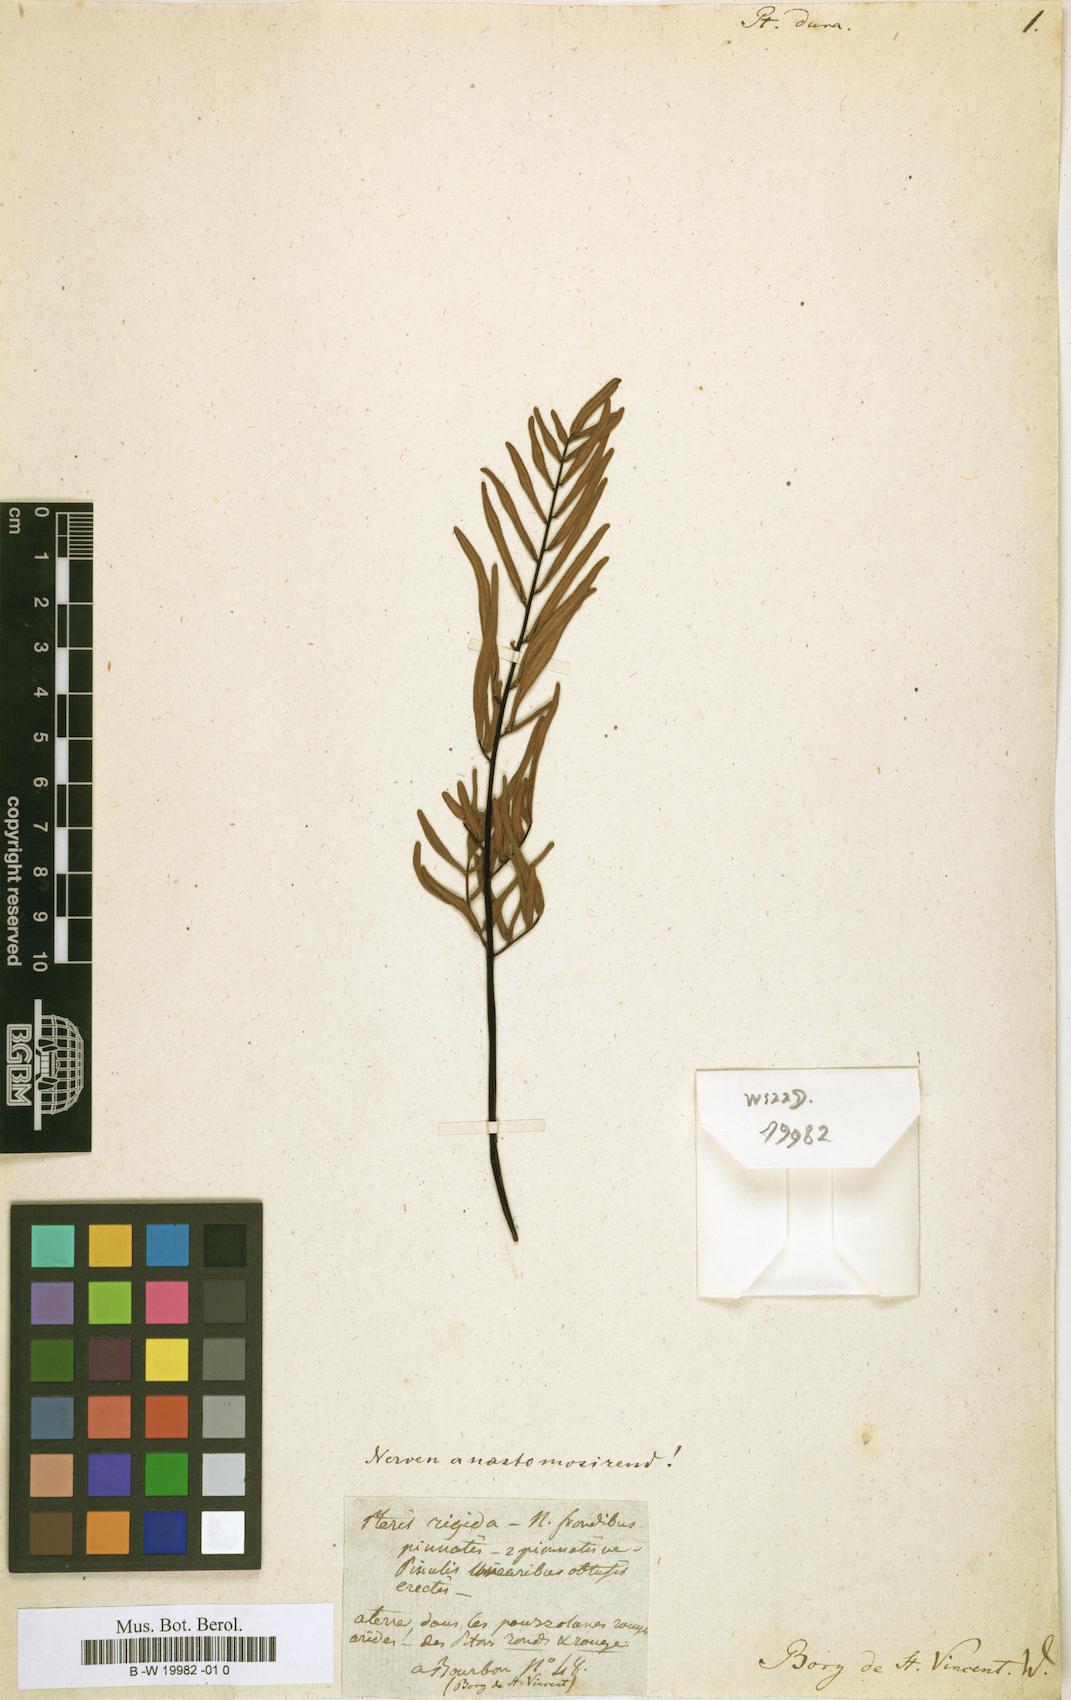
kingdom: Plantae
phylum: Tracheophyta
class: Polypodiopsida
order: Polypodiales
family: Pteridaceae
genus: Pellaea
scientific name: Pellaea dura
